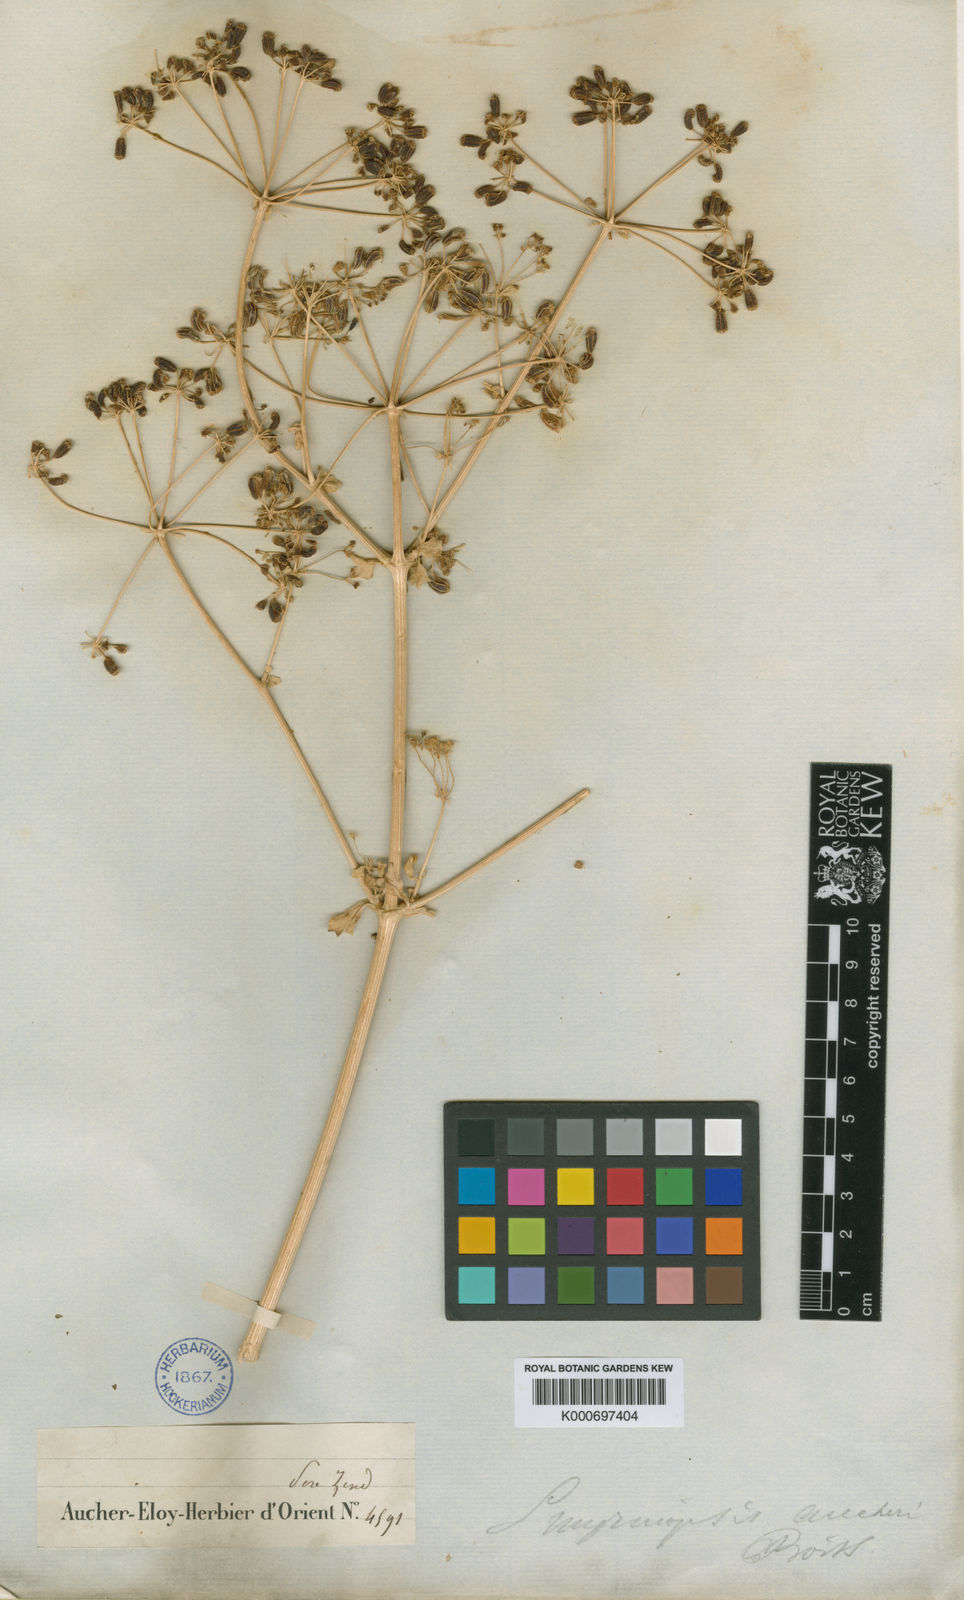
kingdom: Plantae
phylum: Tracheophyta
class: Magnoliopsida
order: Apiales
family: Apiaceae
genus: Smyrniopsis
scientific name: Smyrniopsis aucheri
